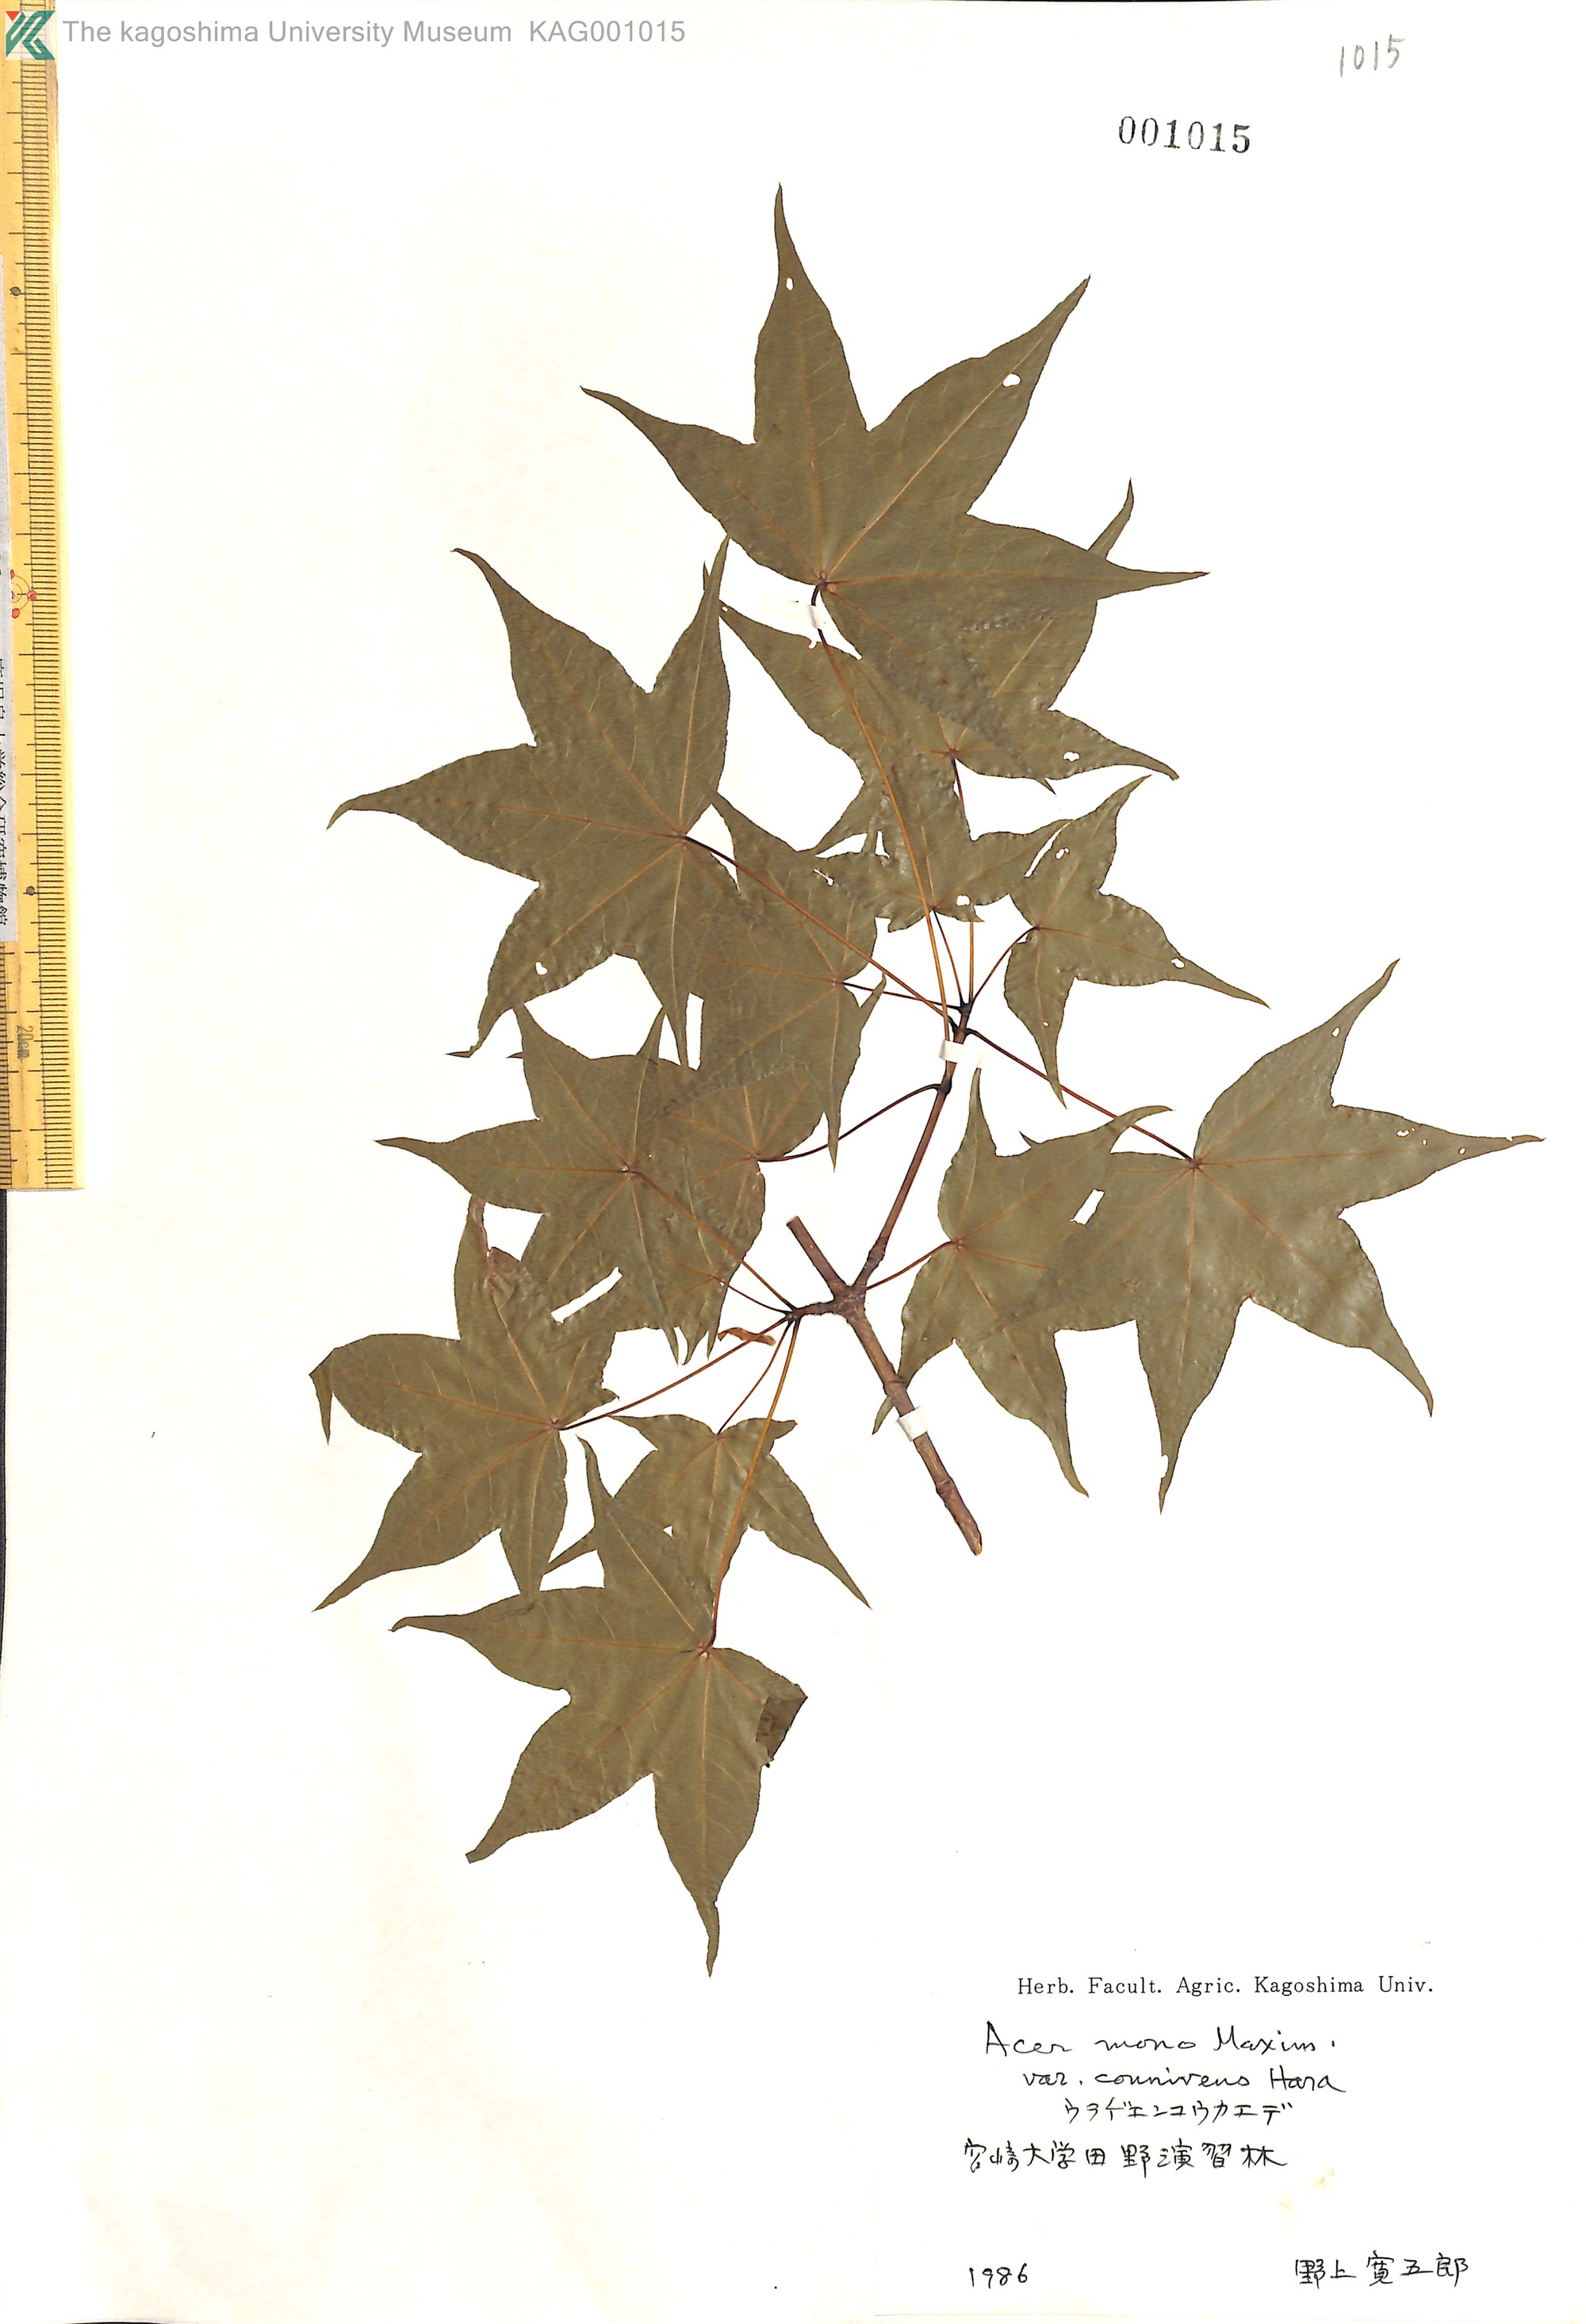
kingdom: Plantae
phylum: Tracheophyta
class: Magnoliopsida
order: Sapindales
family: Sapindaceae
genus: Acer
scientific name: Acer pictum
